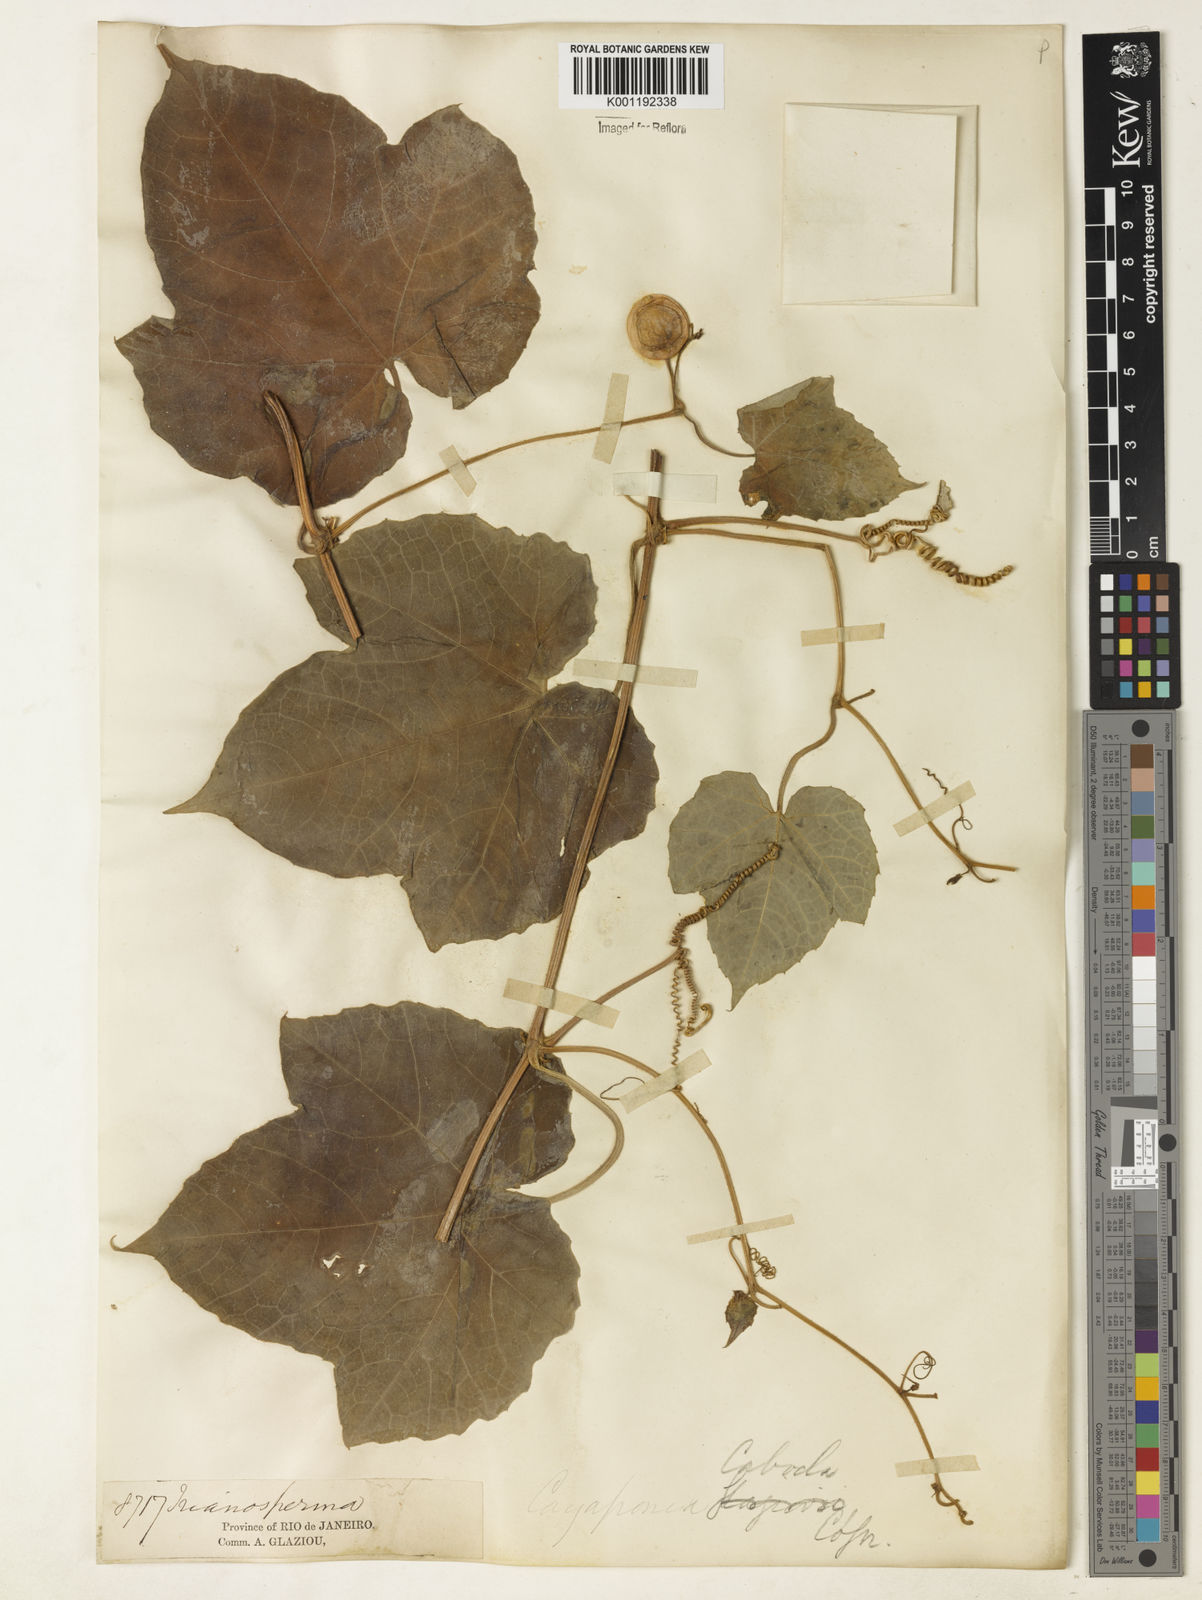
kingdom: Plantae
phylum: Tracheophyta
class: Magnoliopsida
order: Cucurbitales
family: Cucurbitaceae
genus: Cayaponia
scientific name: Cayaponia cabocla
